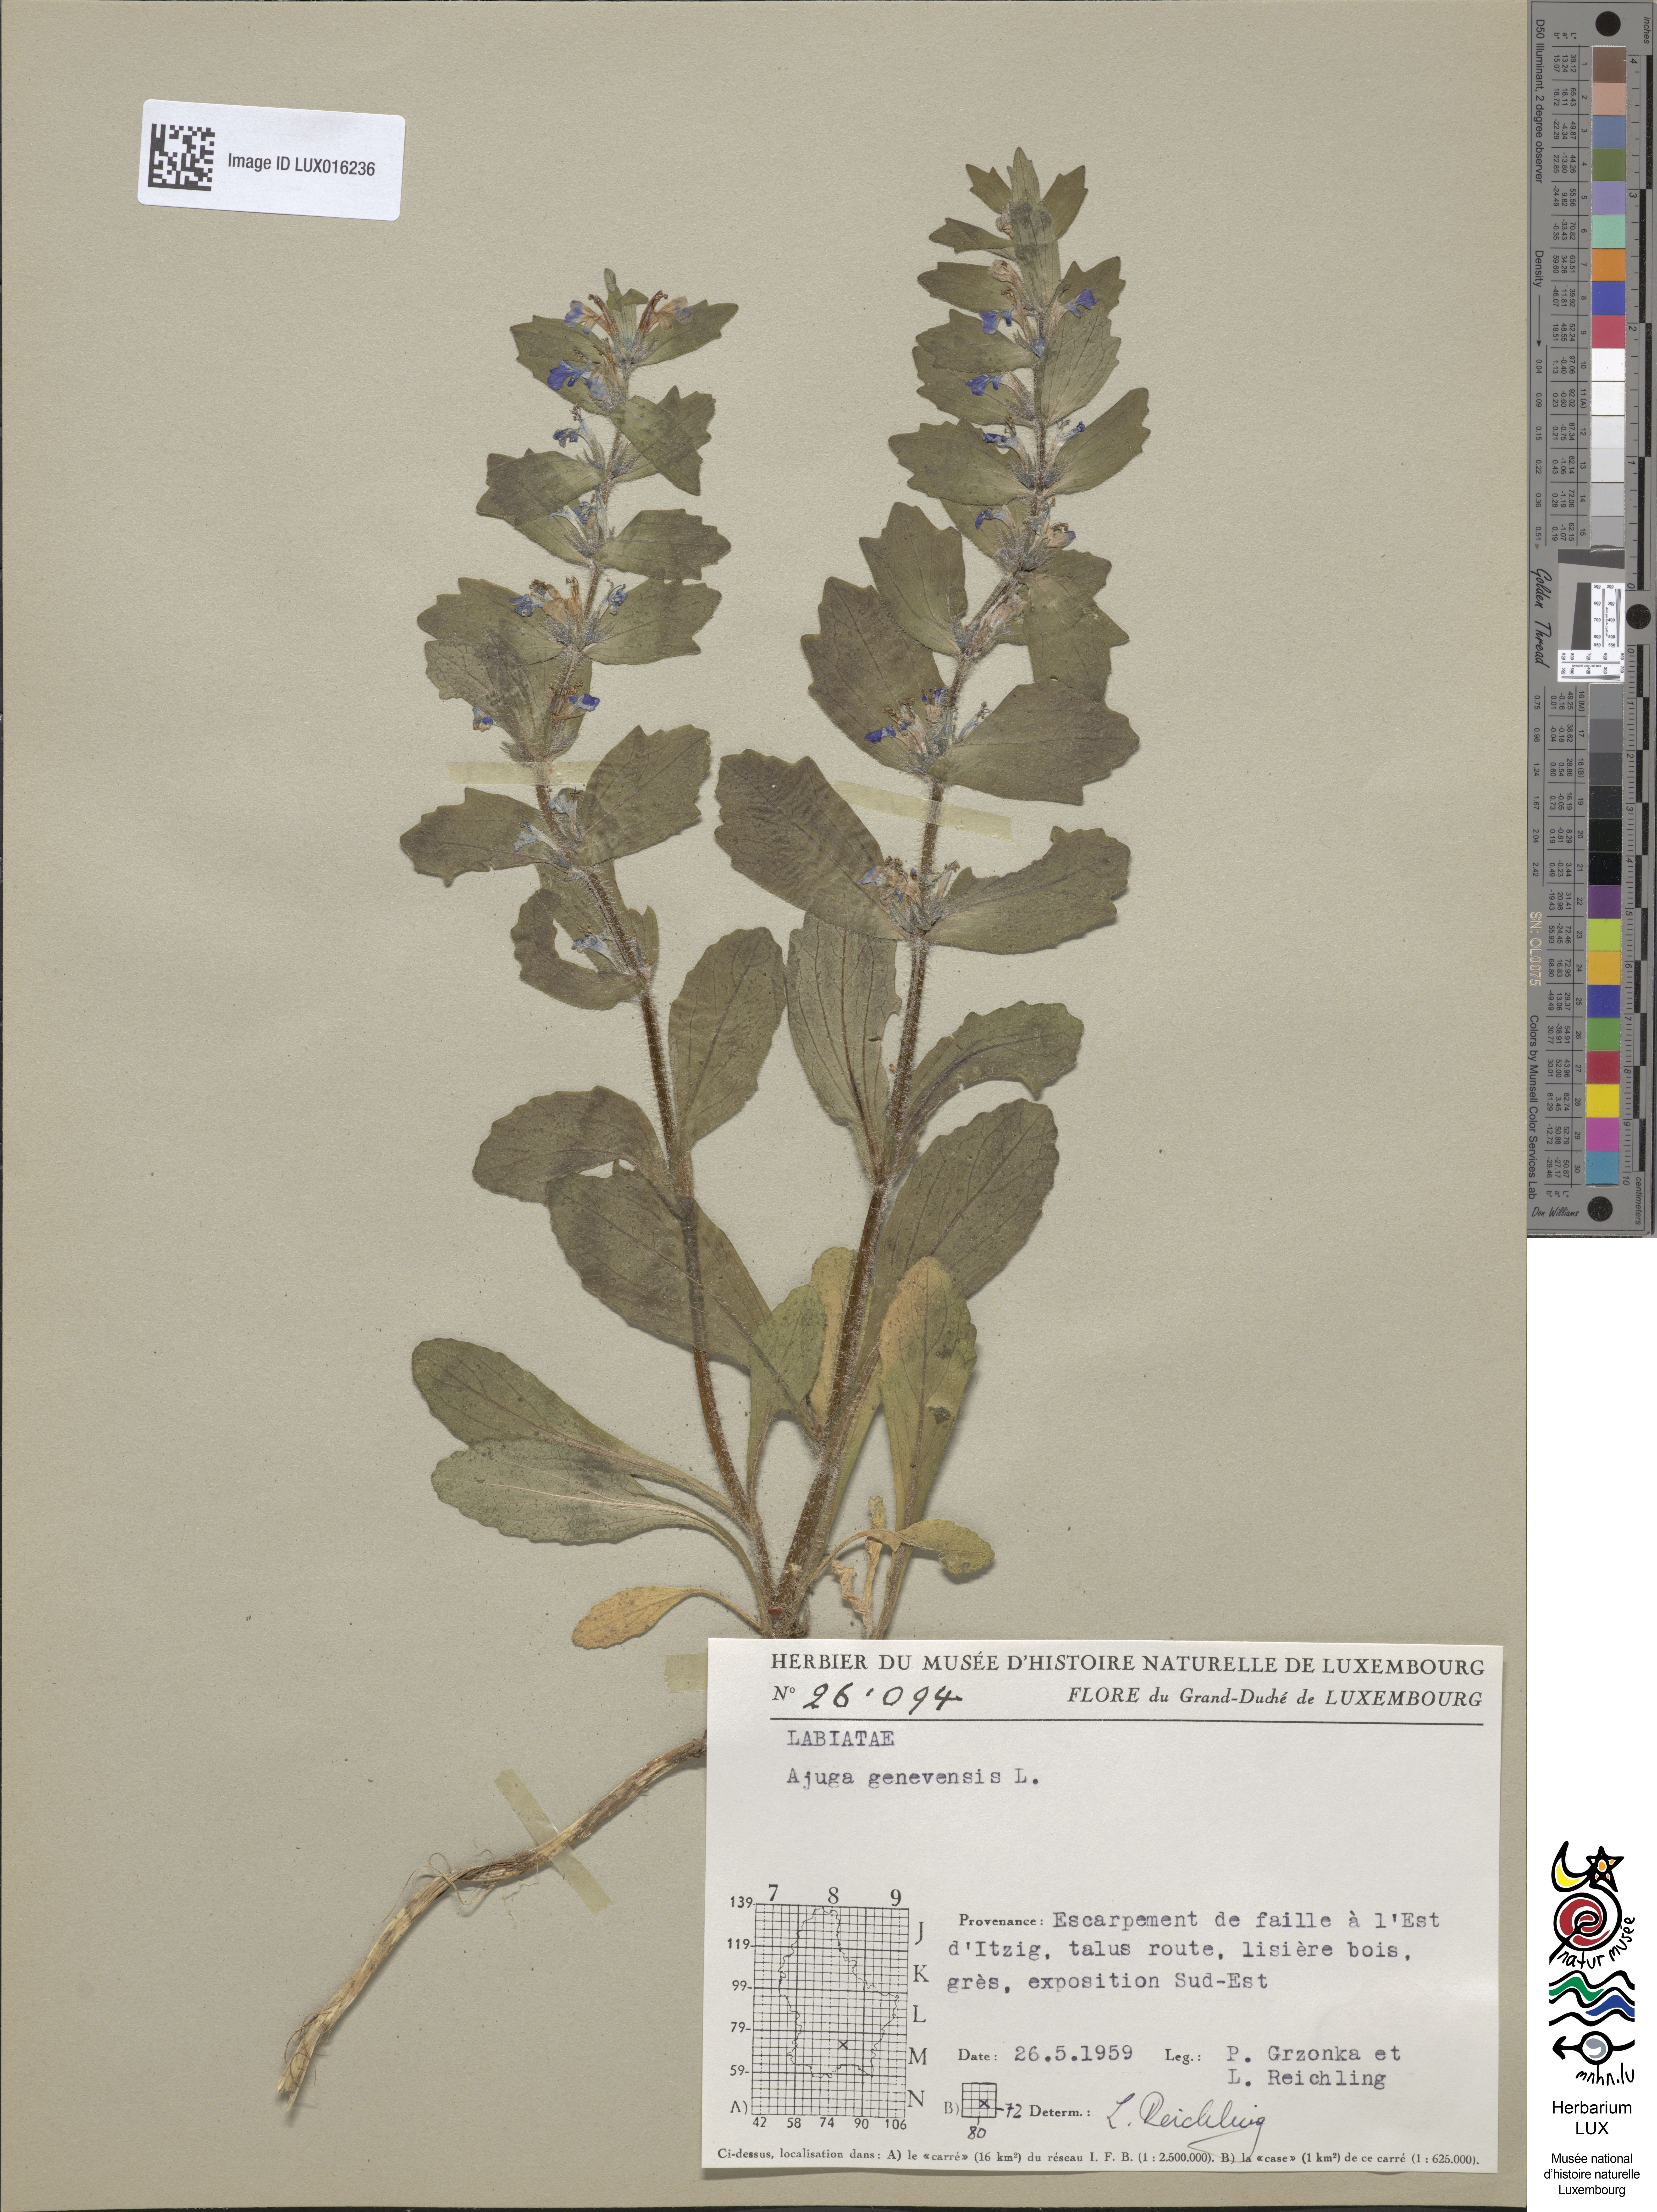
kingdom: Plantae
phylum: Tracheophyta
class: Magnoliopsida
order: Lamiales
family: Lamiaceae
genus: Ajuga
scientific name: Ajuga genevensis
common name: Blue bugle
